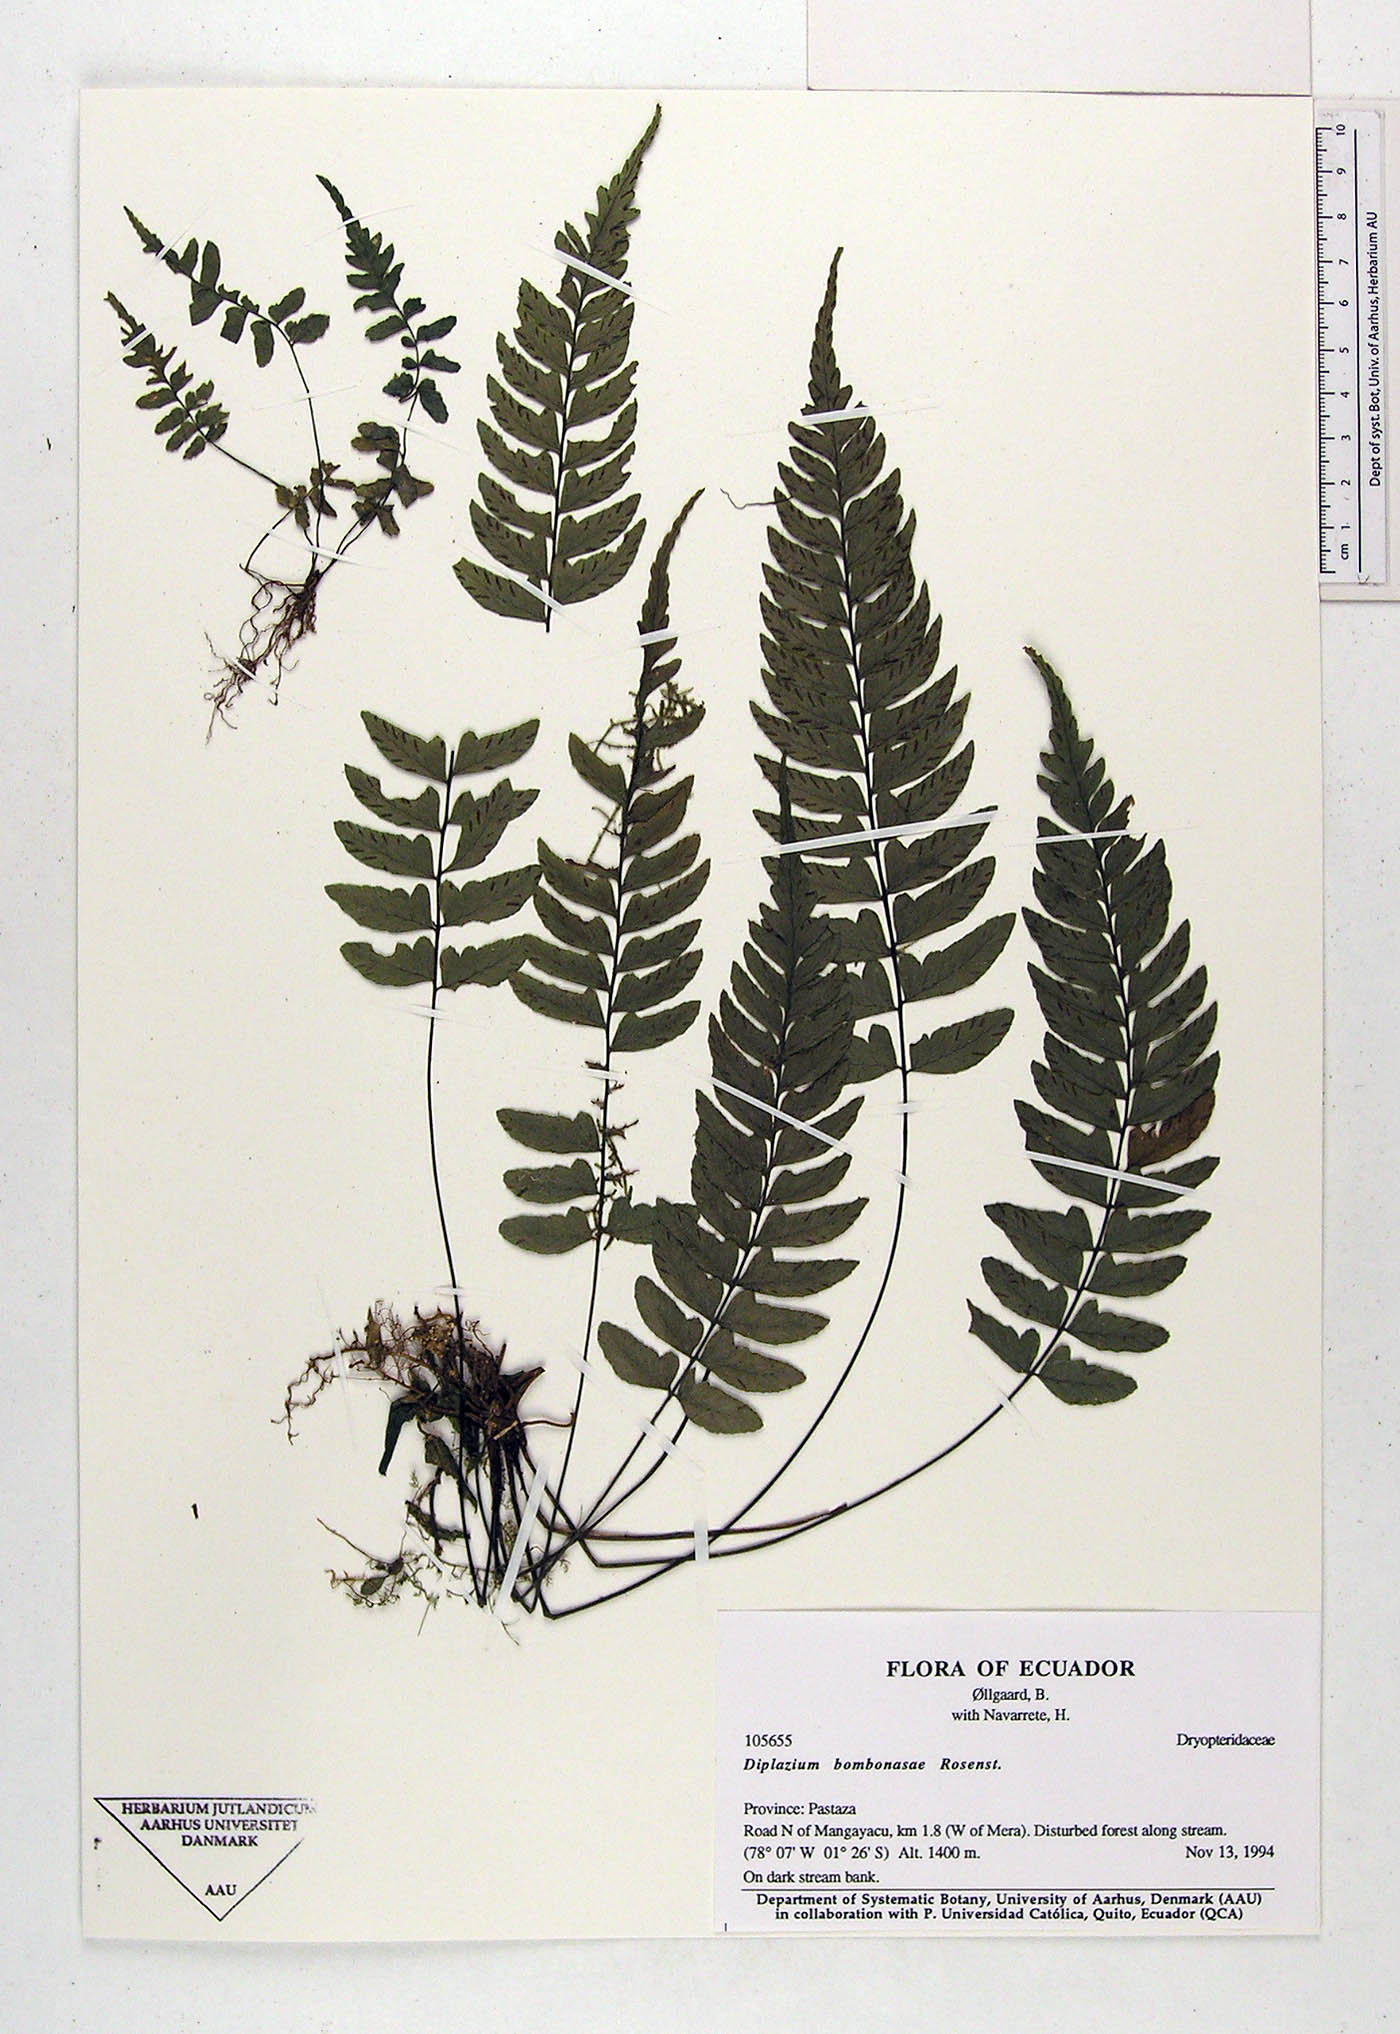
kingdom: Plantae
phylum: Tracheophyta
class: Polypodiopsida
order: Polypodiales
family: Athyriaceae
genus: Diplazium
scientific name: Diplazium bombonasae
